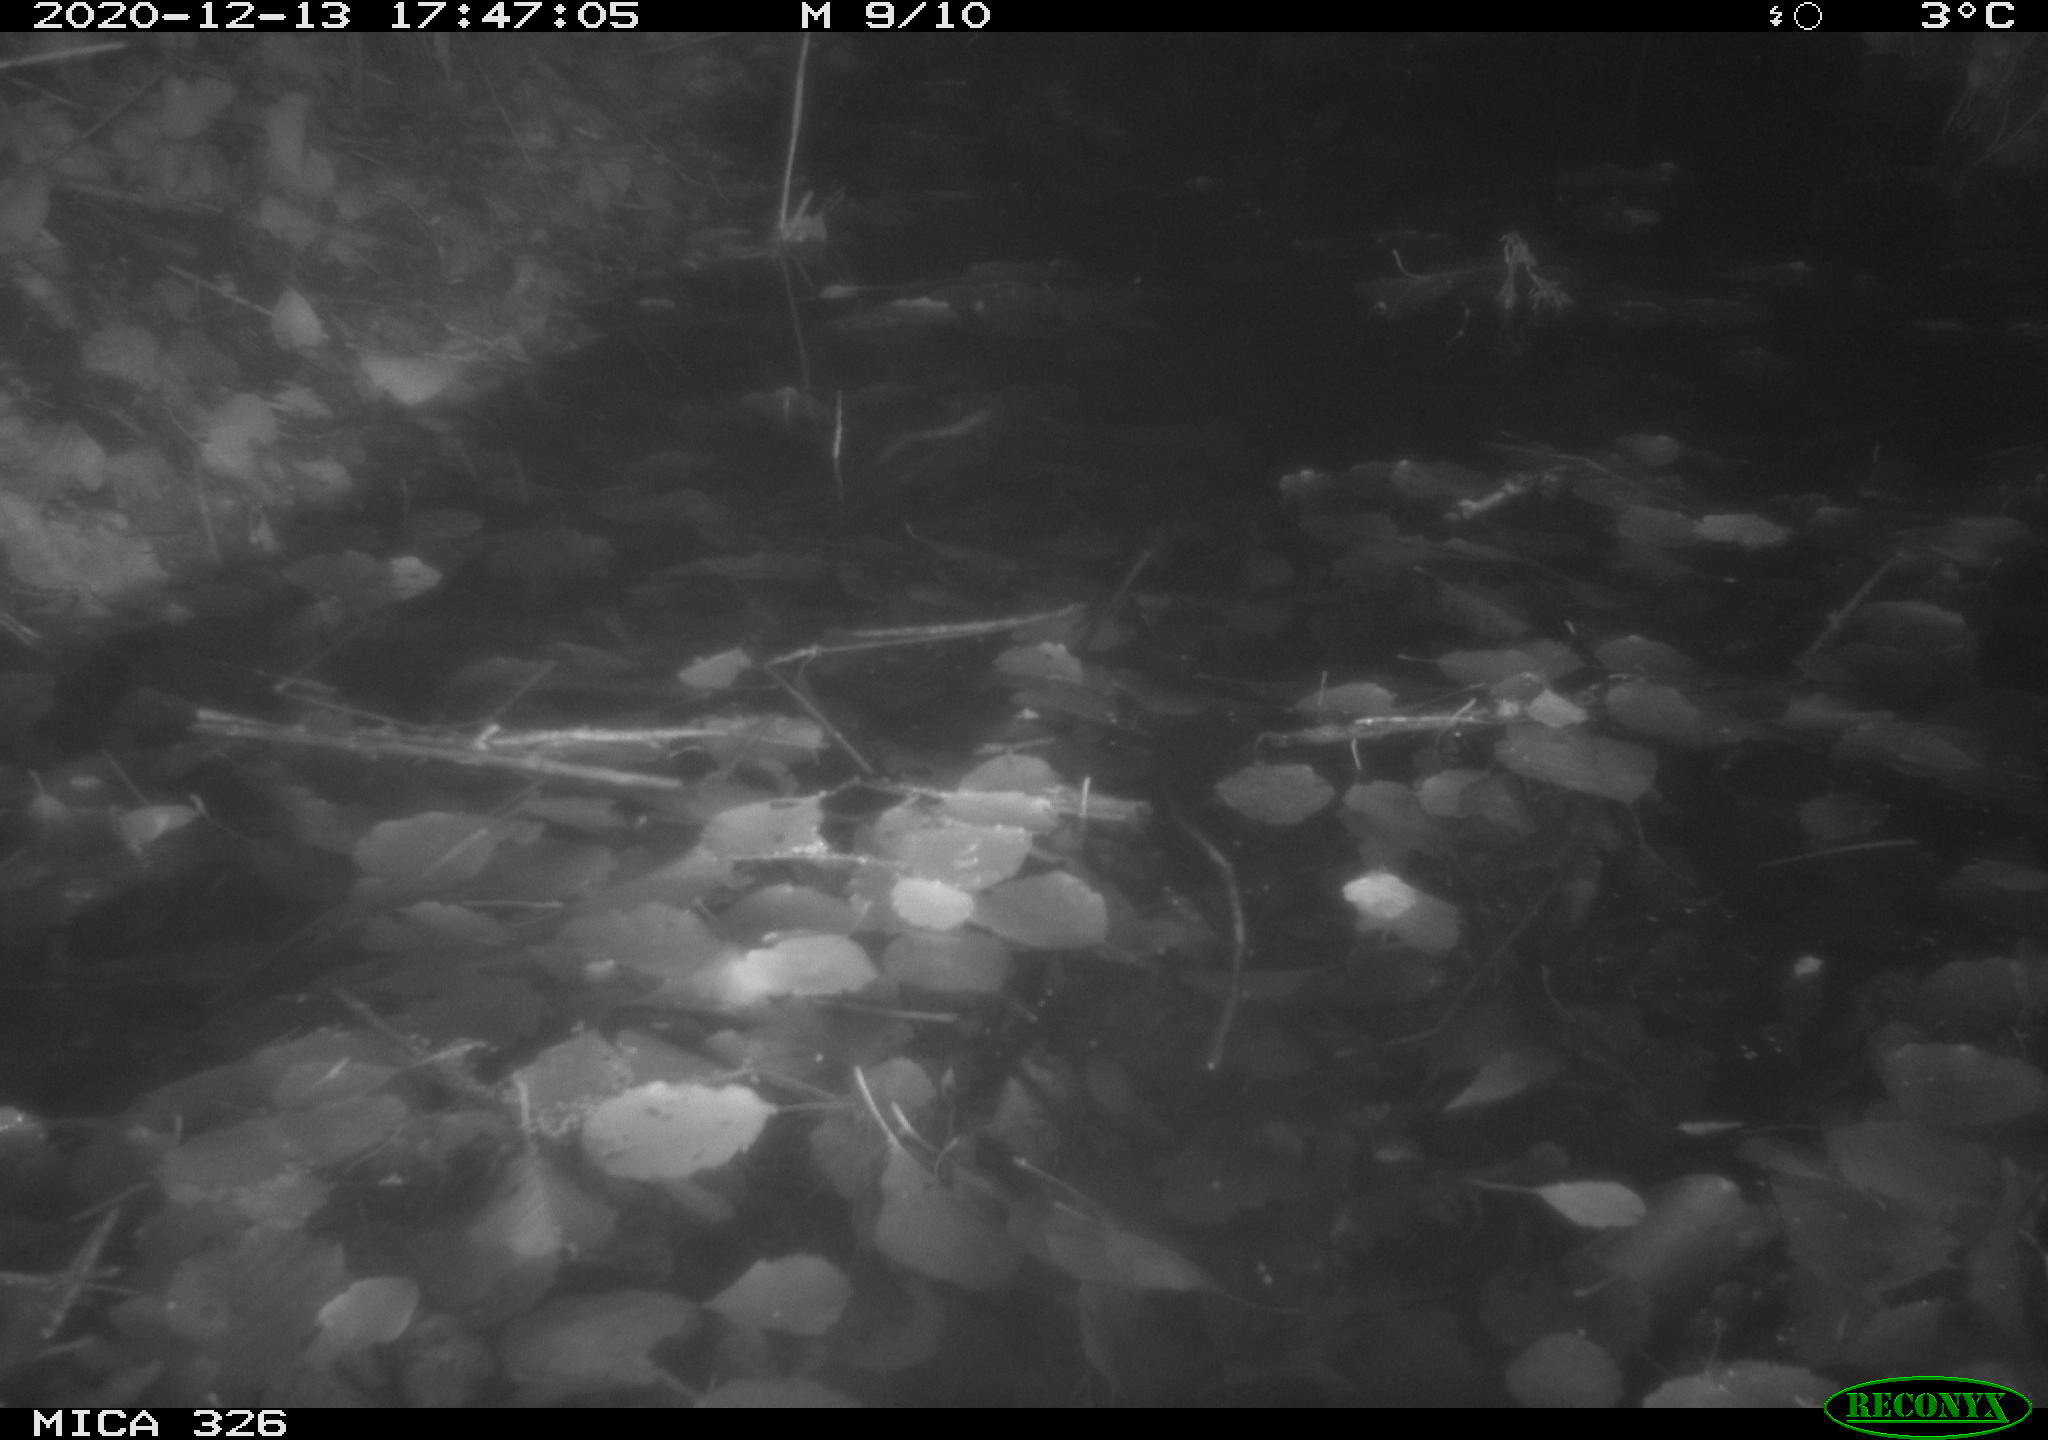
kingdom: Animalia
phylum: Chordata
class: Mammalia
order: Rodentia
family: Cricetidae
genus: Ondatra
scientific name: Ondatra zibethicus
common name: Muskrat
